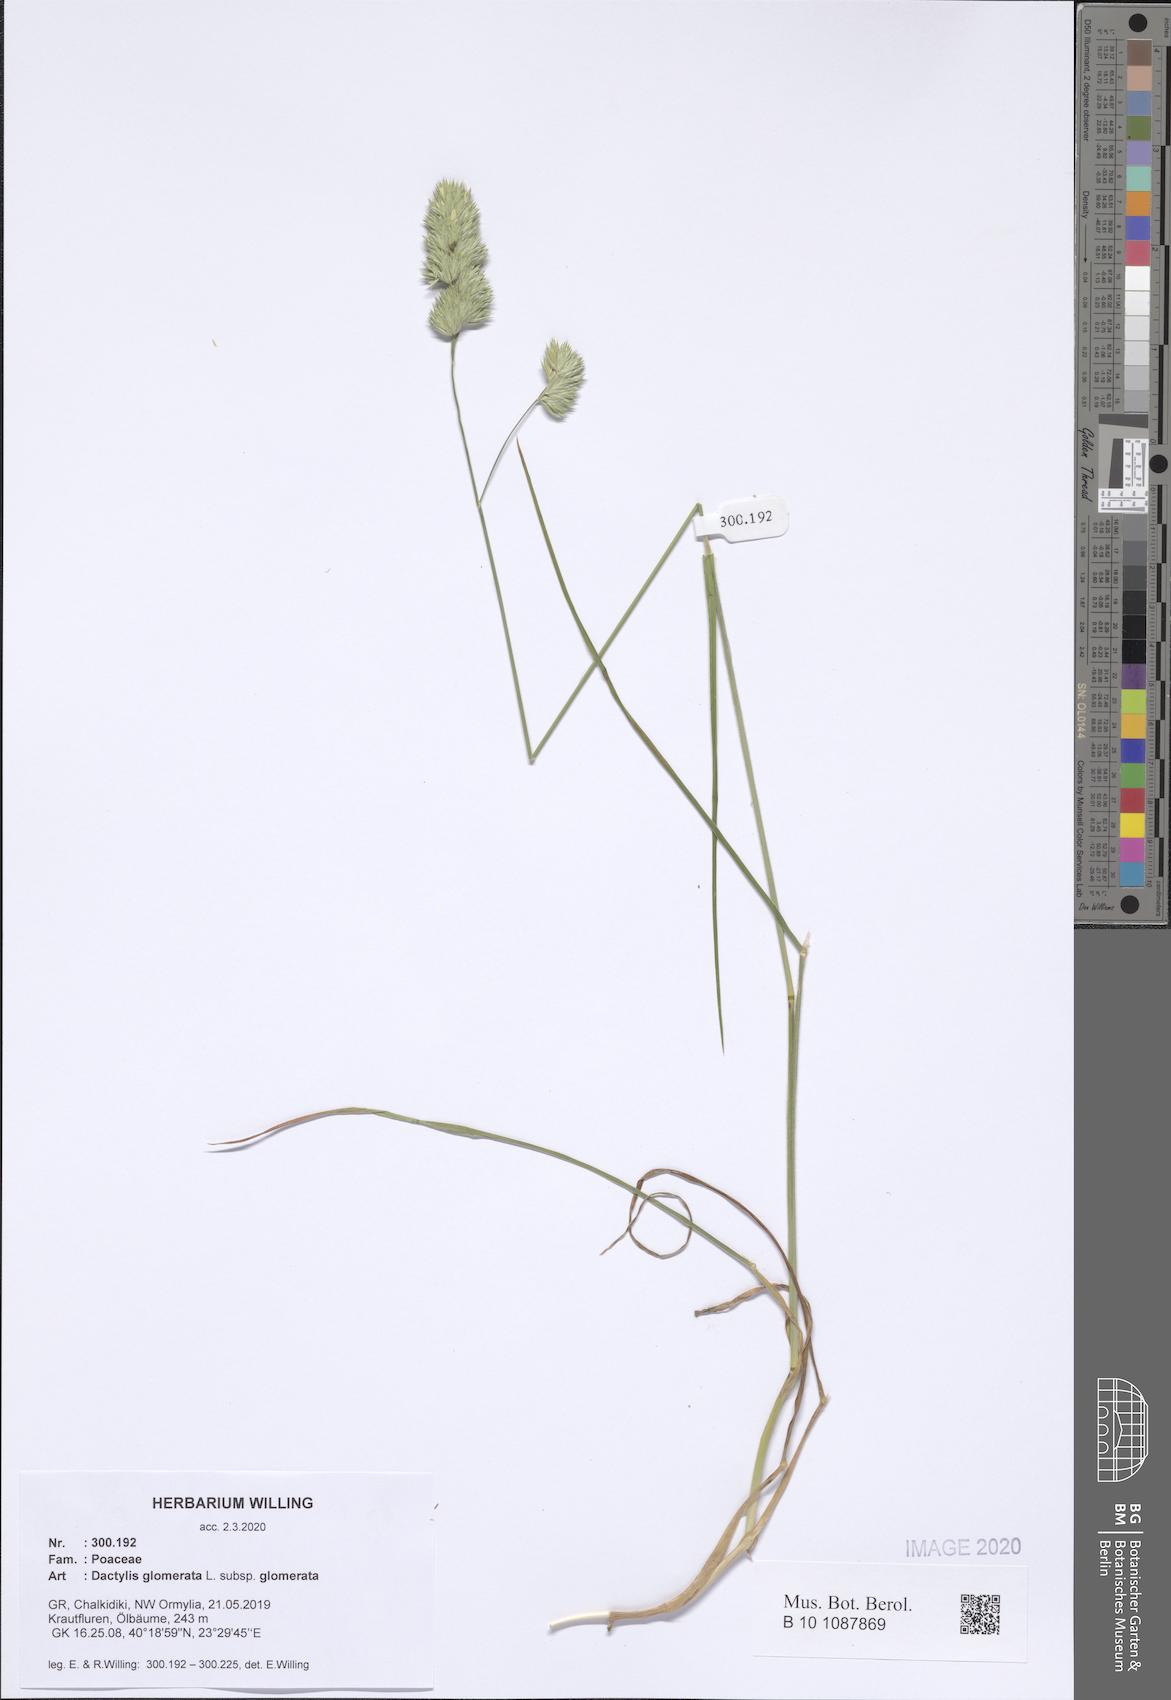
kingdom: Plantae
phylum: Tracheophyta
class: Liliopsida
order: Poales
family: Poaceae
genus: Dactylis
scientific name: Dactylis glomerata
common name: Orchardgrass
